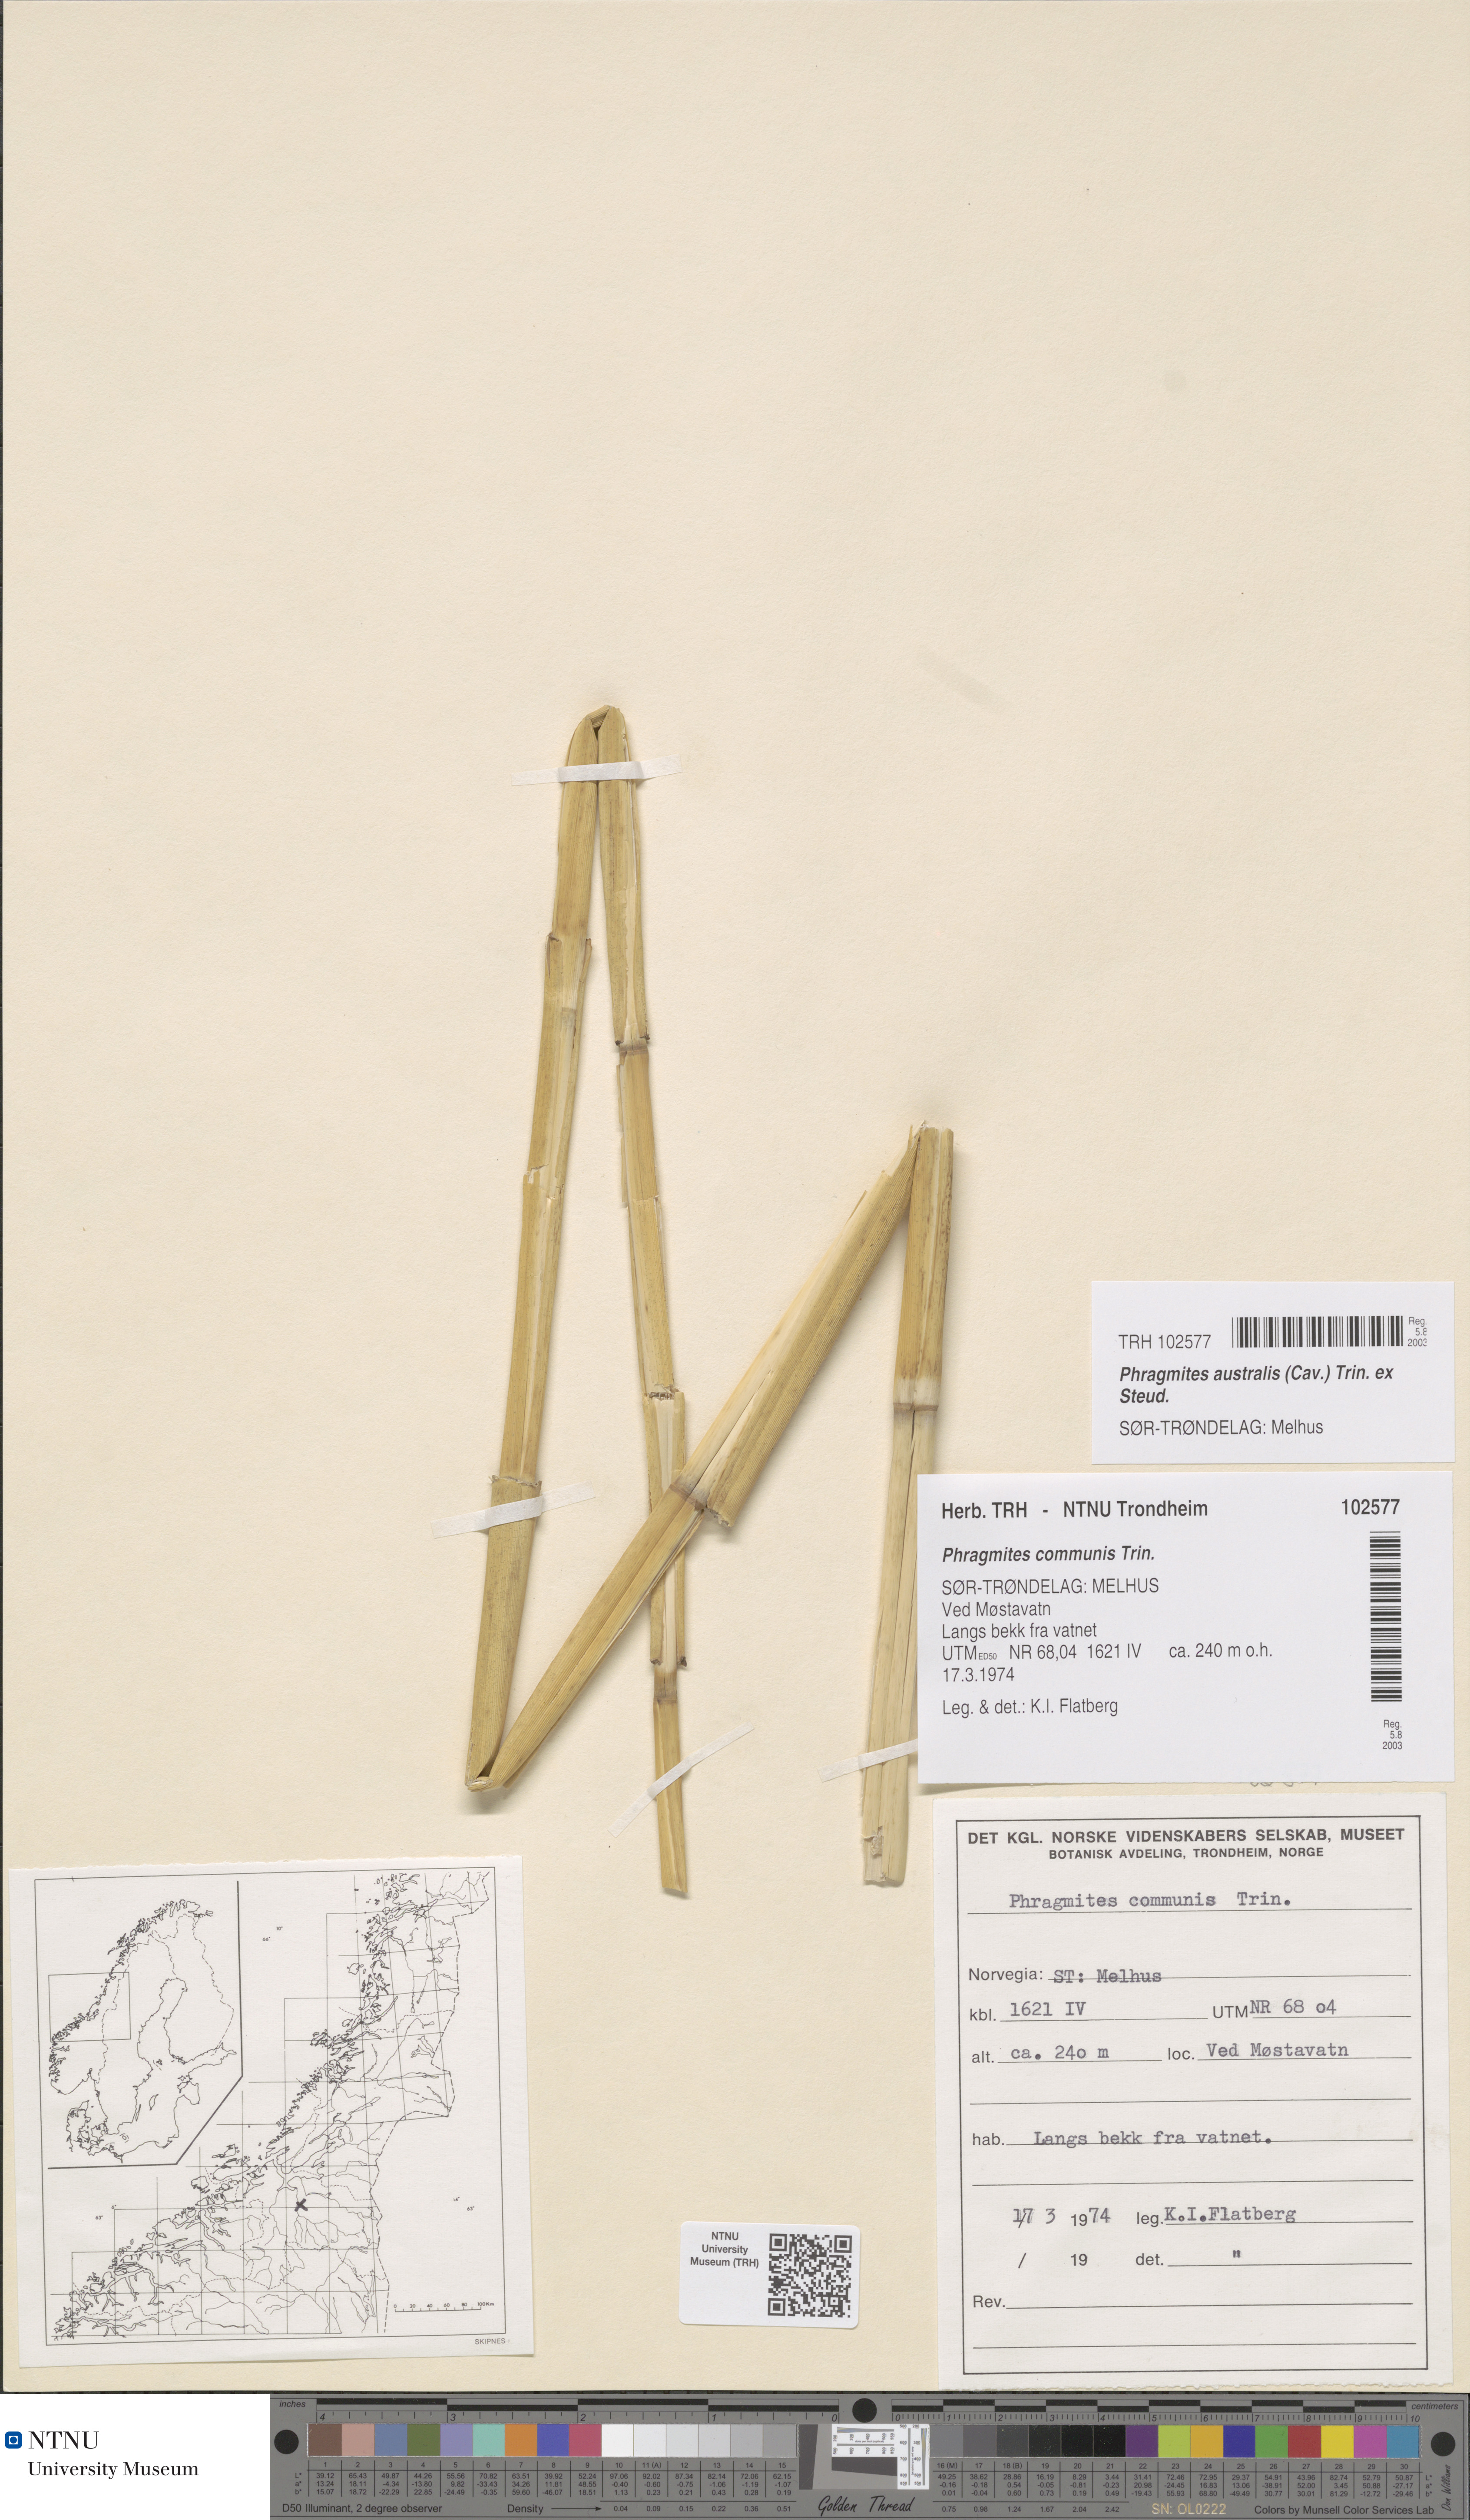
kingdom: Plantae
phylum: Tracheophyta
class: Liliopsida
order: Poales
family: Poaceae
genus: Phragmites
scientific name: Phragmites australis
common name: Common reed
